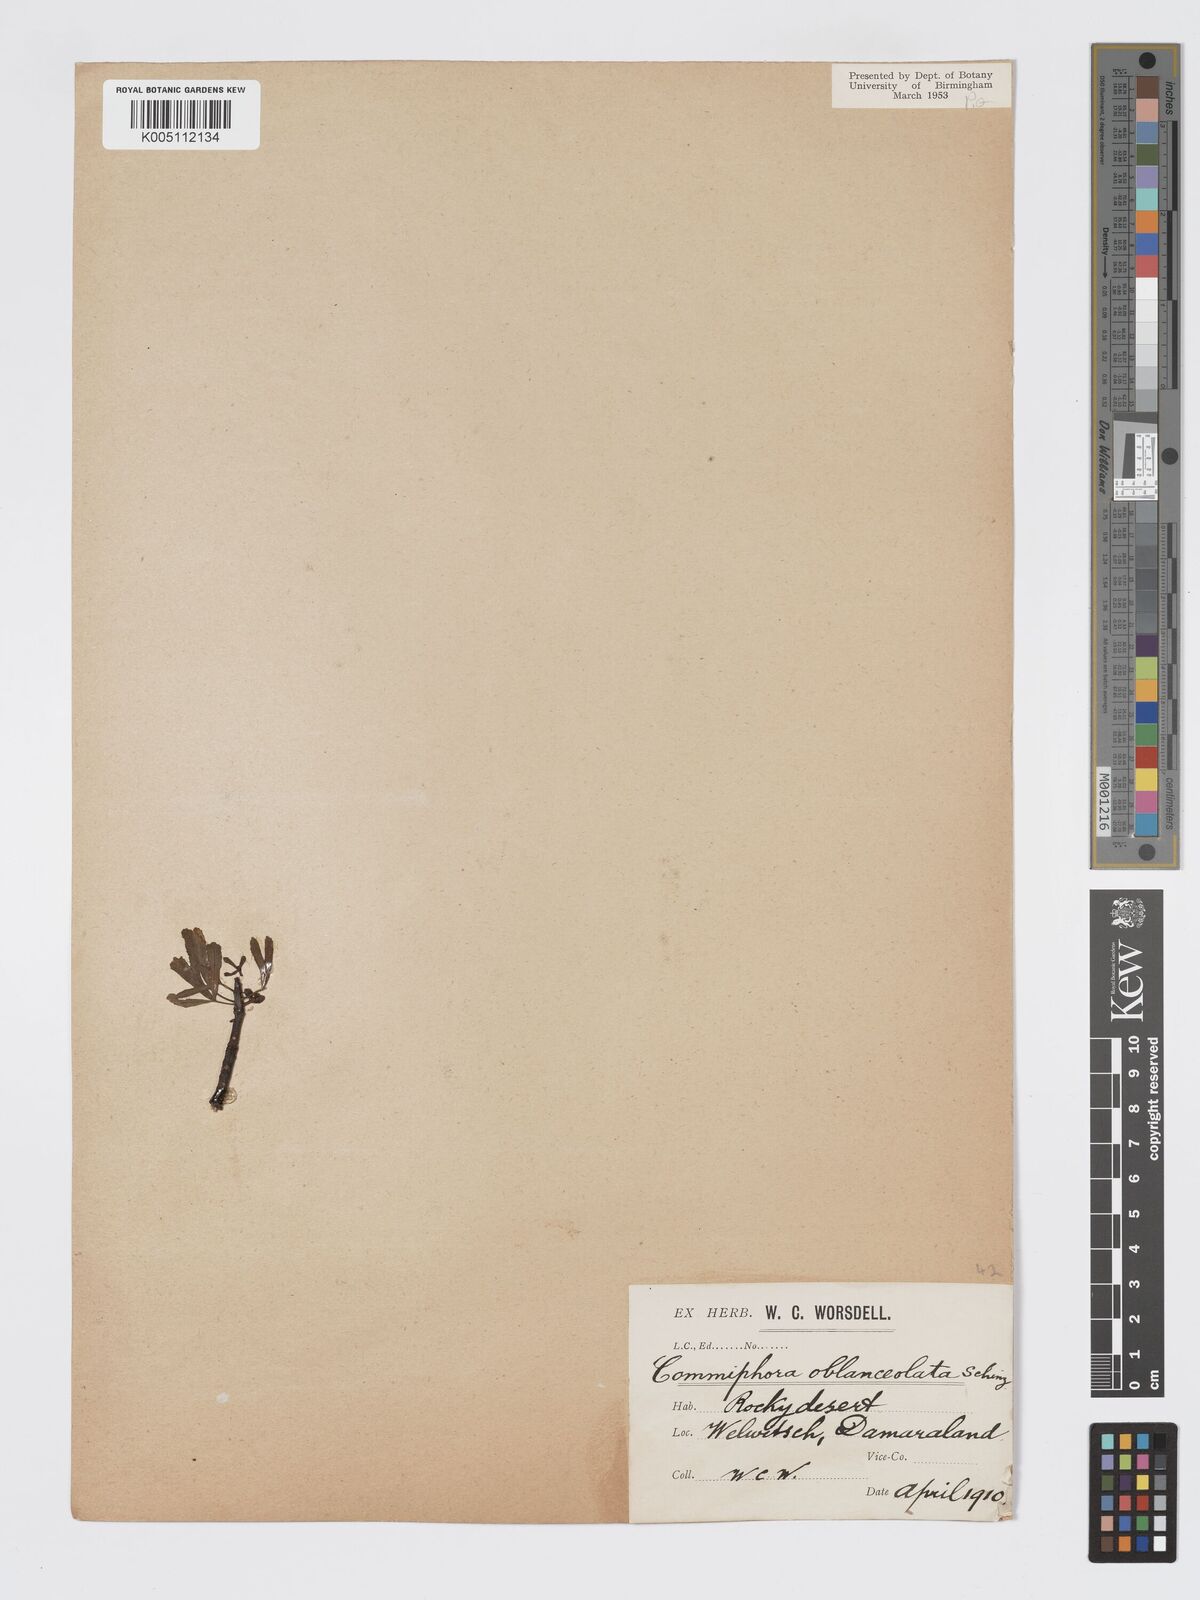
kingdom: Plantae
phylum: Tracheophyta
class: Magnoliopsida
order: Sapindales
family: Burseraceae
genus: Commiphora
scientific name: Commiphora gracilifrondosa
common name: Karee-leaved commiphora
